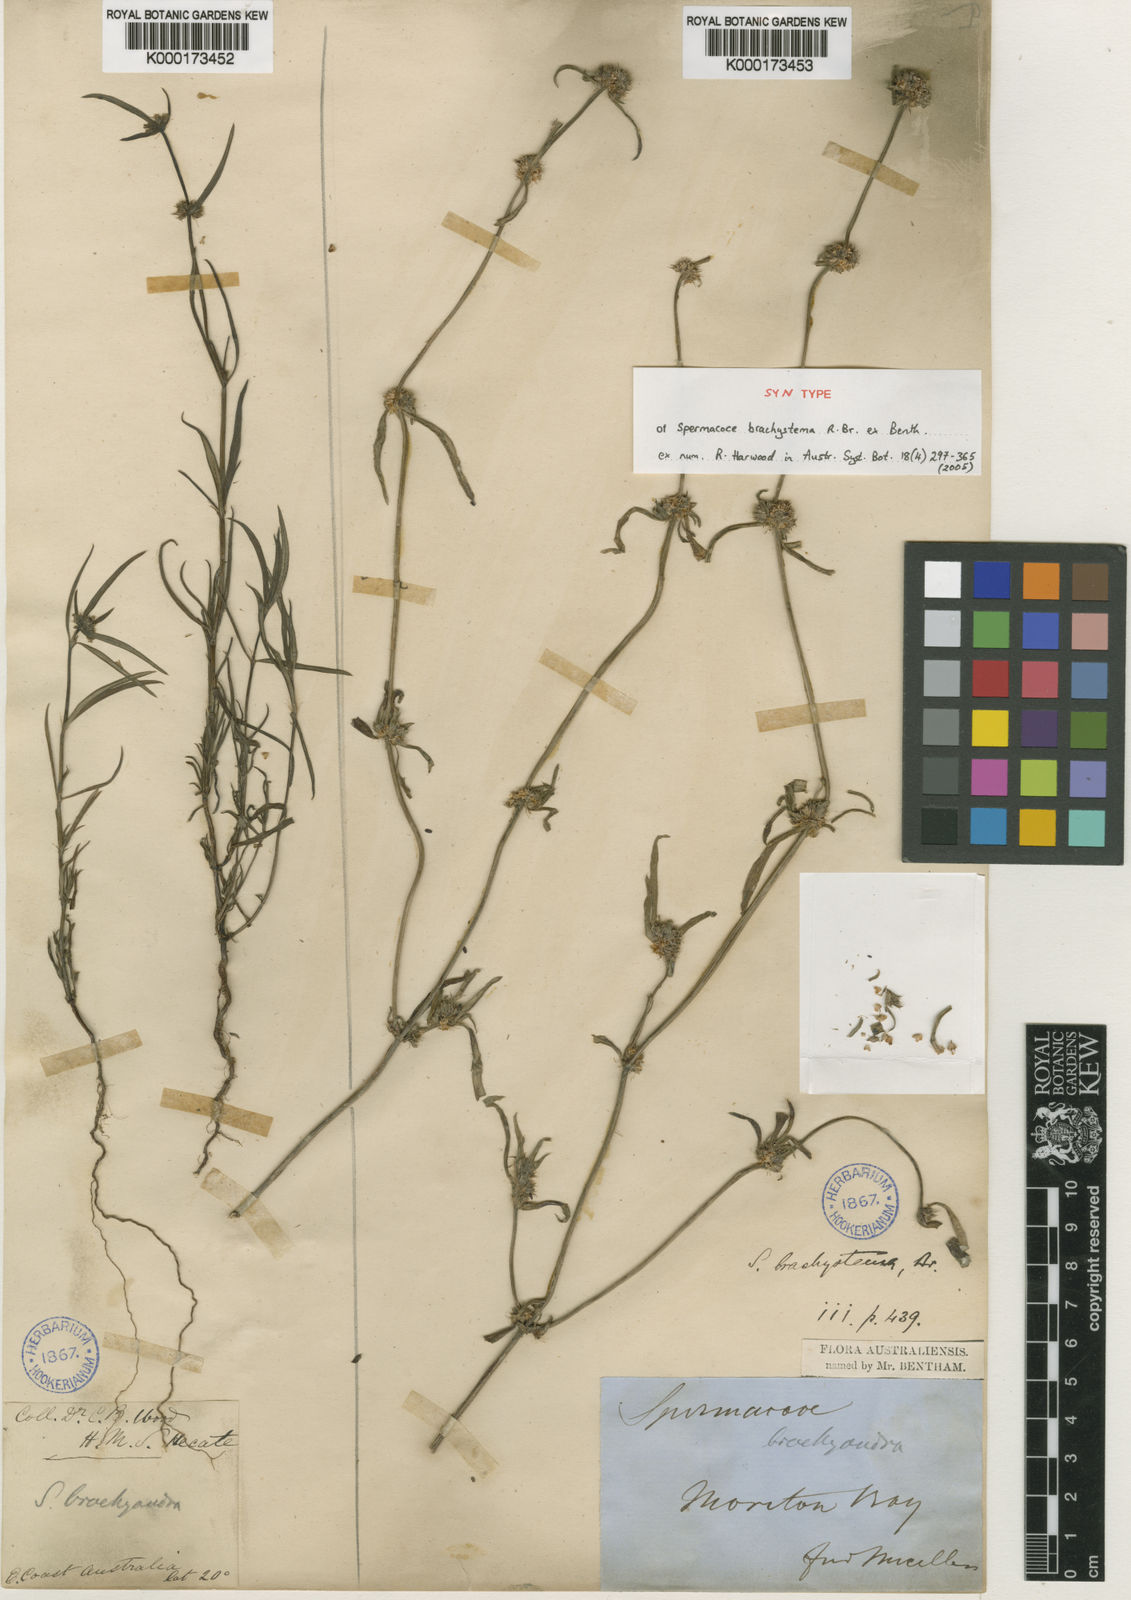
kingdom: Plantae
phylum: Tracheophyta
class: Magnoliopsida
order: Gentianales
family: Rubiaceae
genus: Spermacoce
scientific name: Spermacoce brachystema
